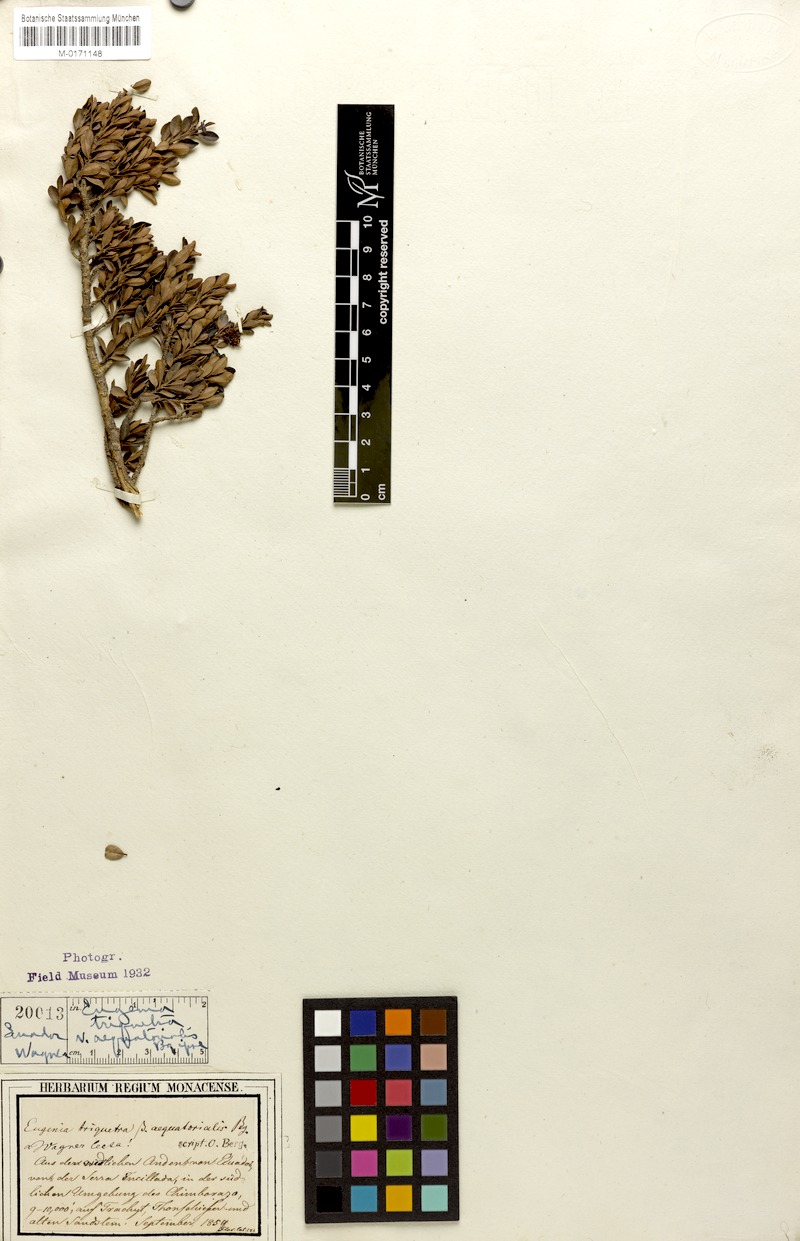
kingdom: Plantae
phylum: Tracheophyta
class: Magnoliopsida
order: Myrtales
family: Myrtaceae
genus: Myrcianthes
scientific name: Myrcianthes myrsinoides
